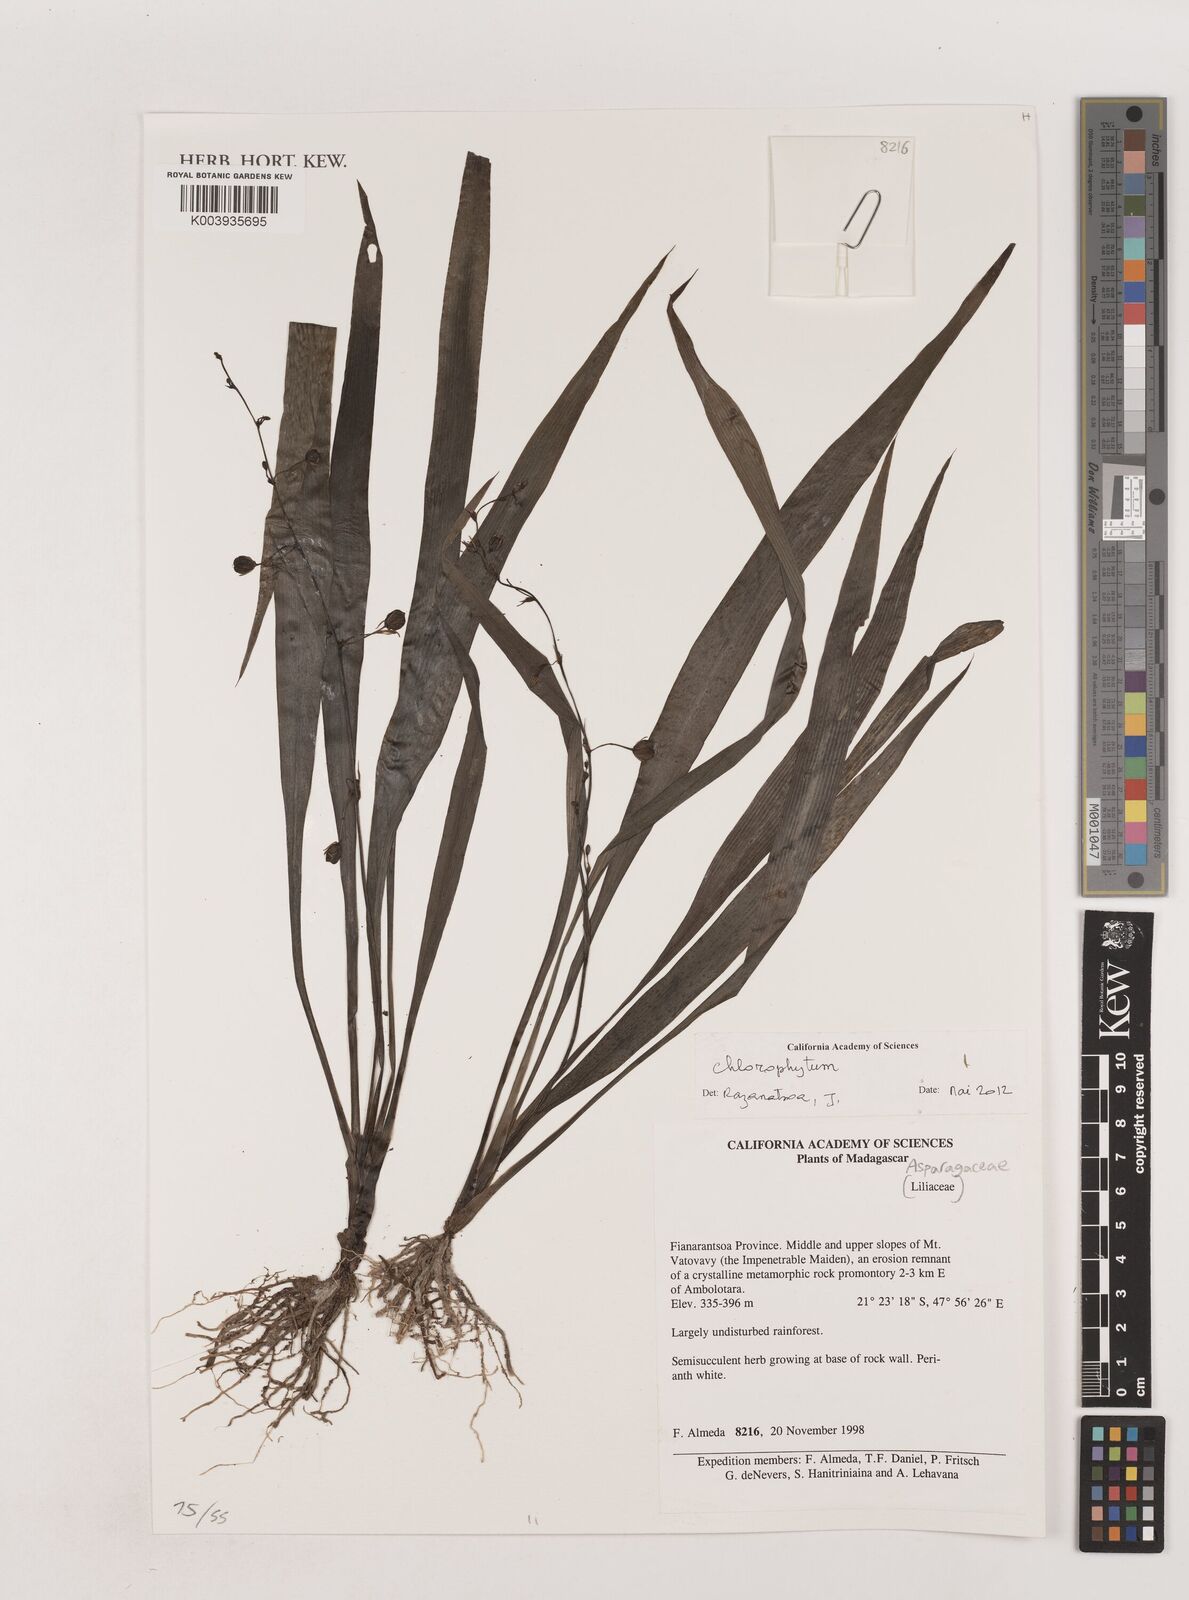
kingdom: Plantae
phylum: Tracheophyta
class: Liliopsida
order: Asparagales
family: Asparagaceae
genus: Chlorophytum
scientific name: Chlorophytum
